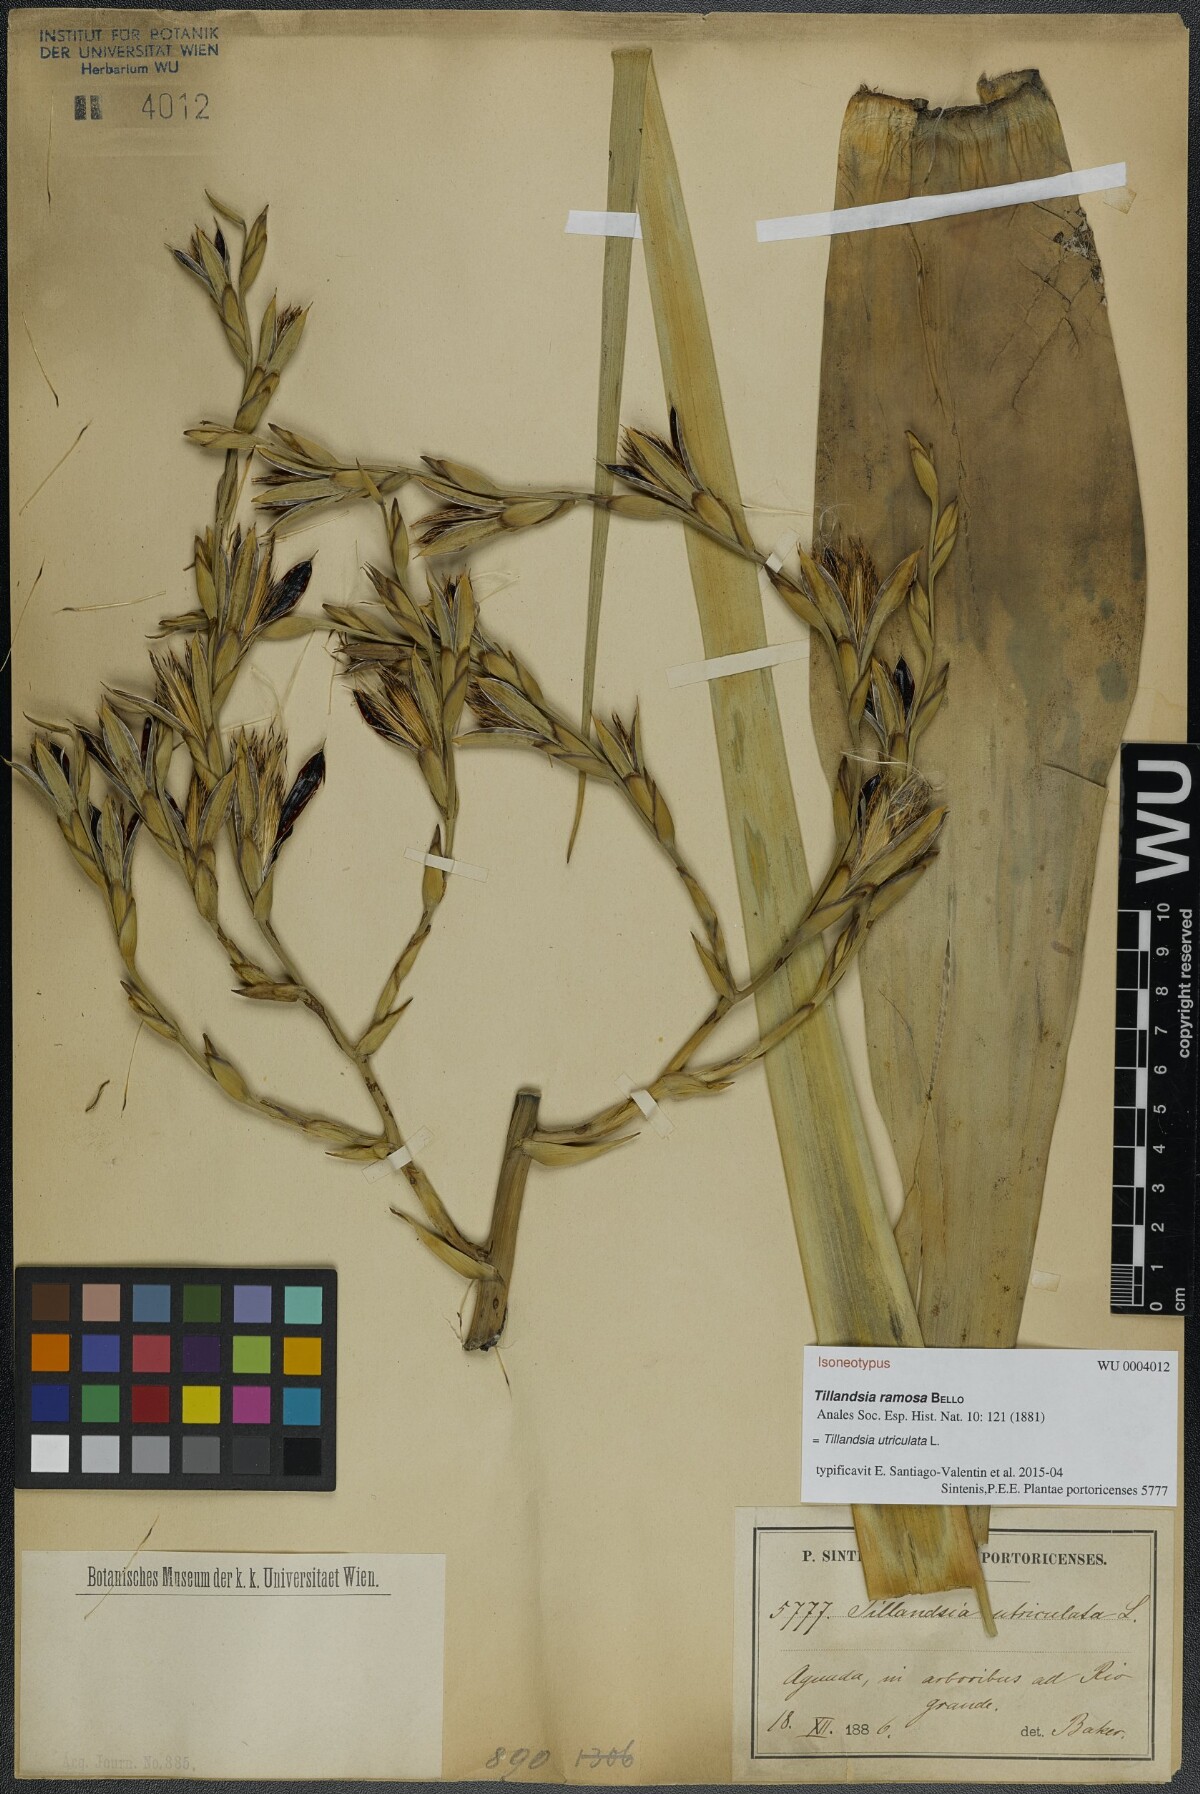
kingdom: Plantae
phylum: Tracheophyta
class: Liliopsida
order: Poales
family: Bromeliaceae
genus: Tillandsia
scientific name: Tillandsia utriculata
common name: Wild pine
